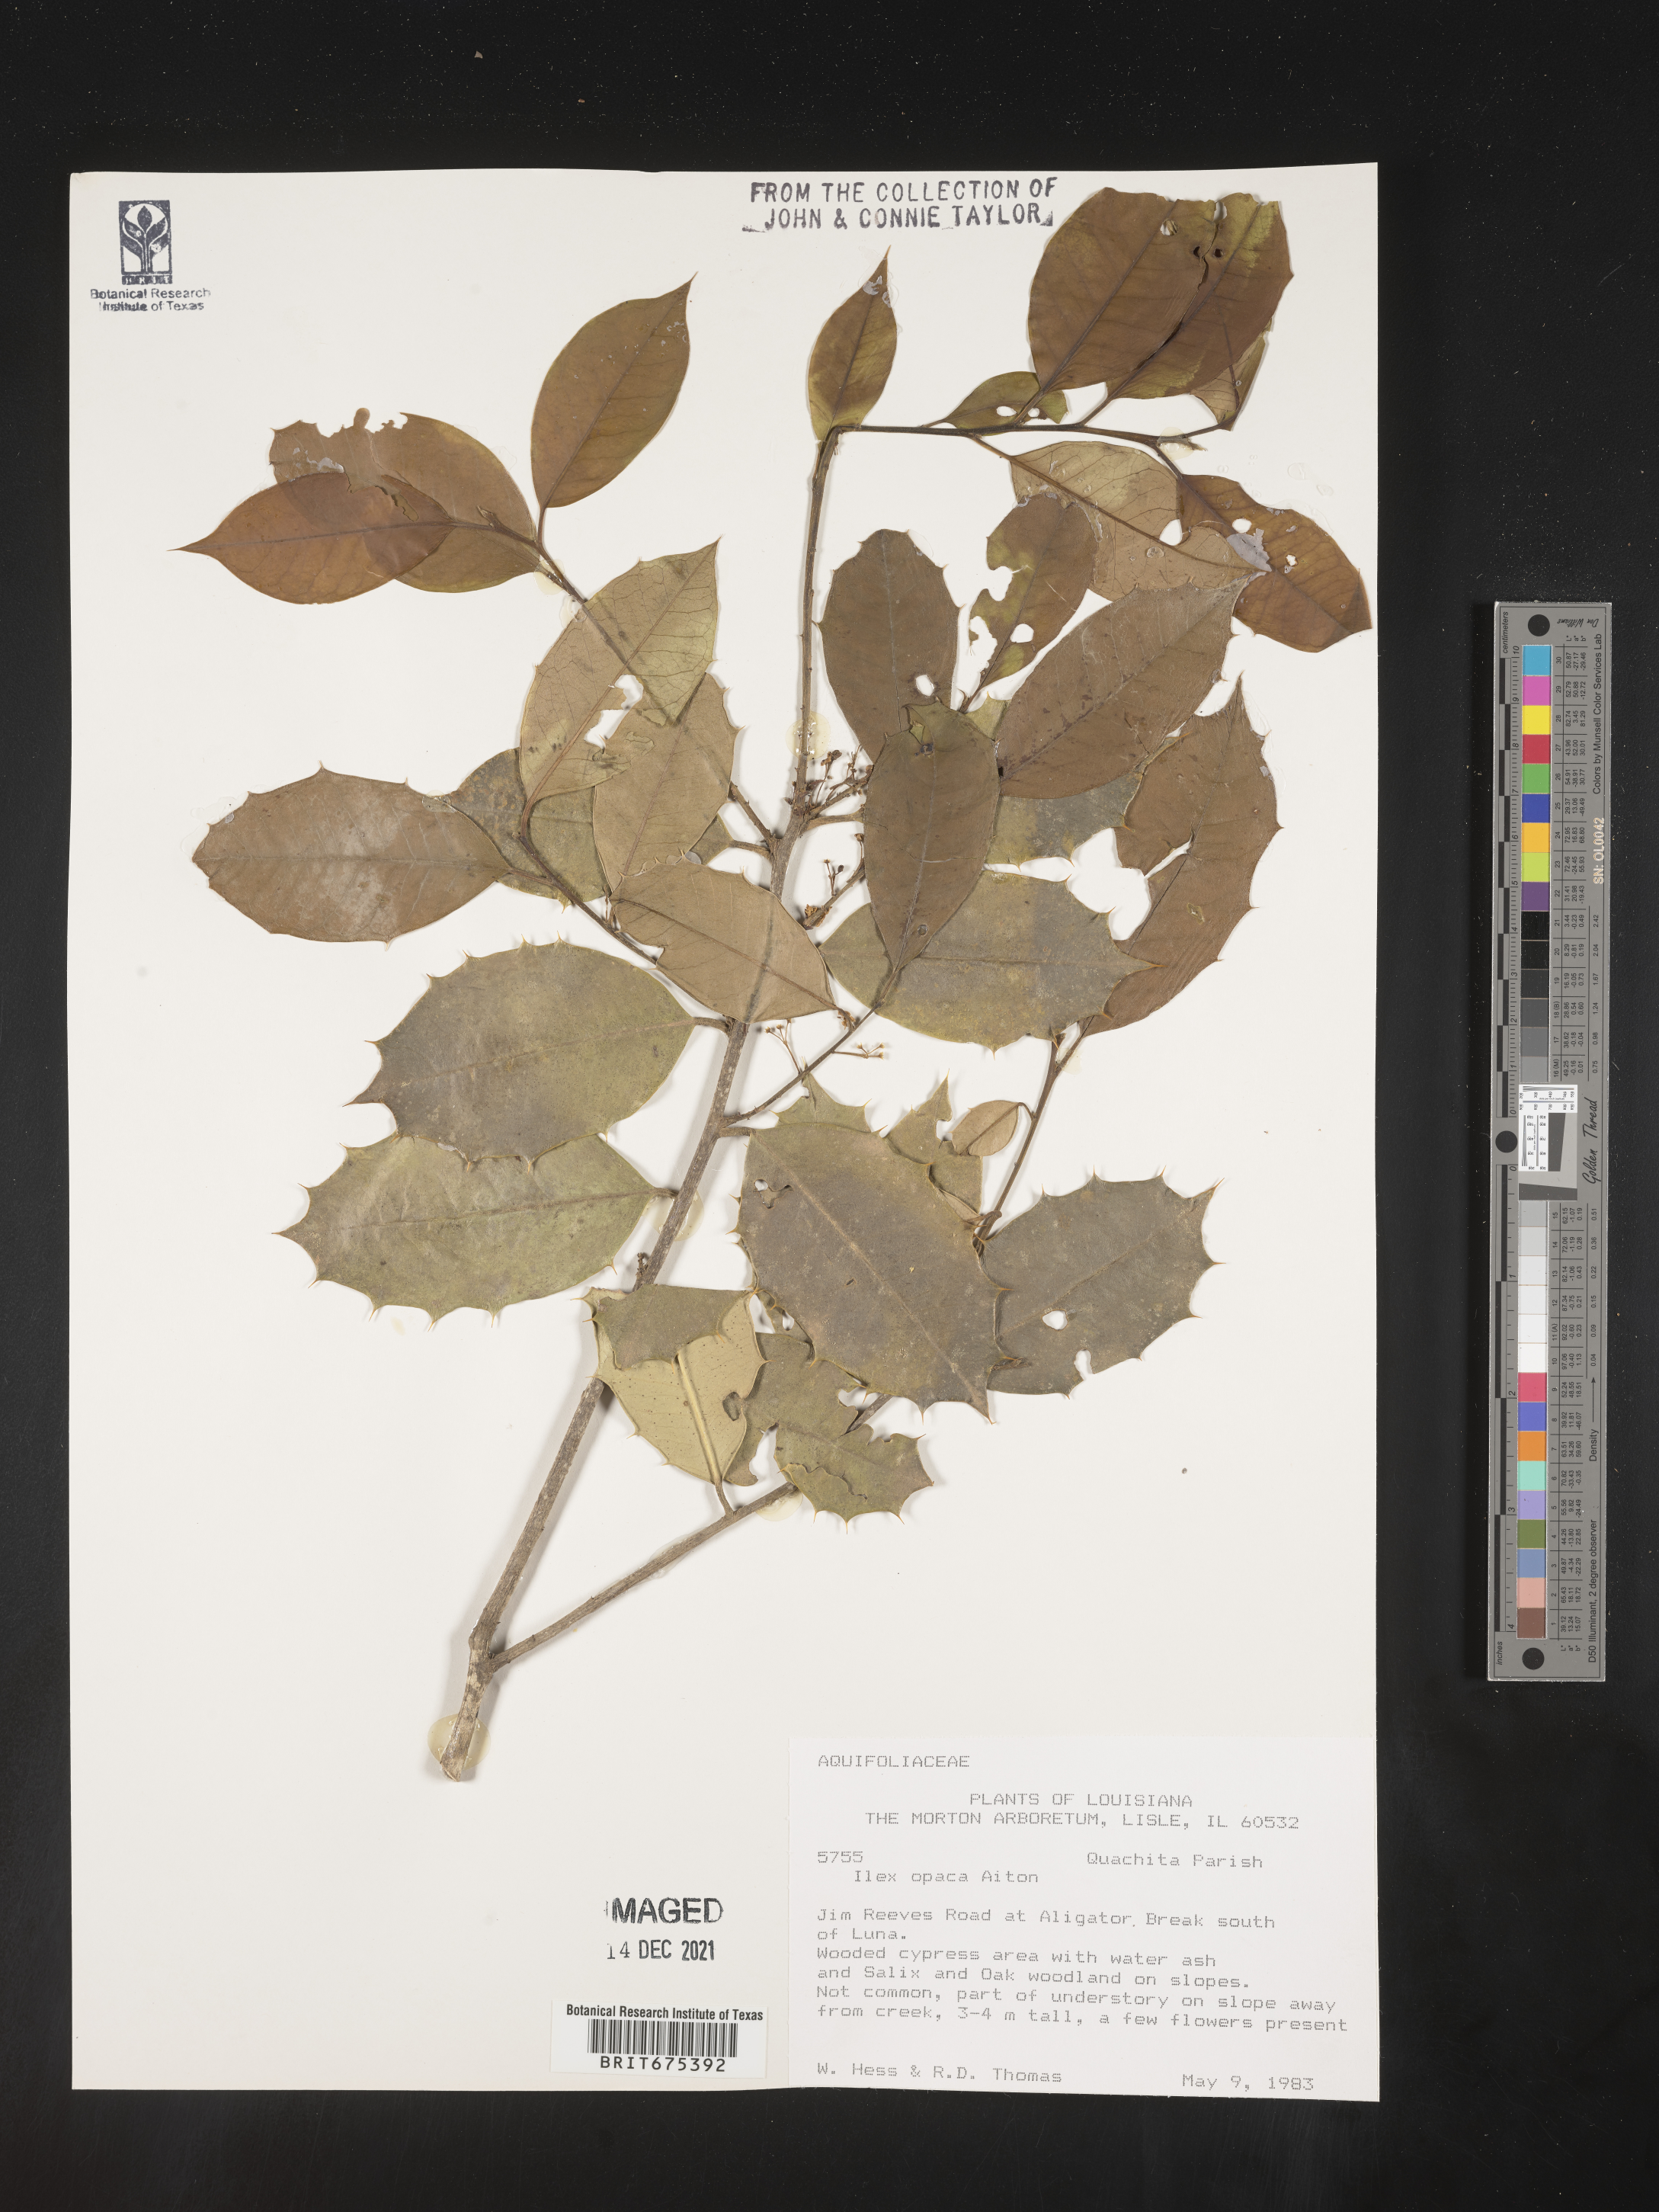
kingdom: Plantae
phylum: Tracheophyta
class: Magnoliopsida
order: Aquifoliales
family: Aquifoliaceae
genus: Ilex
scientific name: Ilex opaca
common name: American holly
